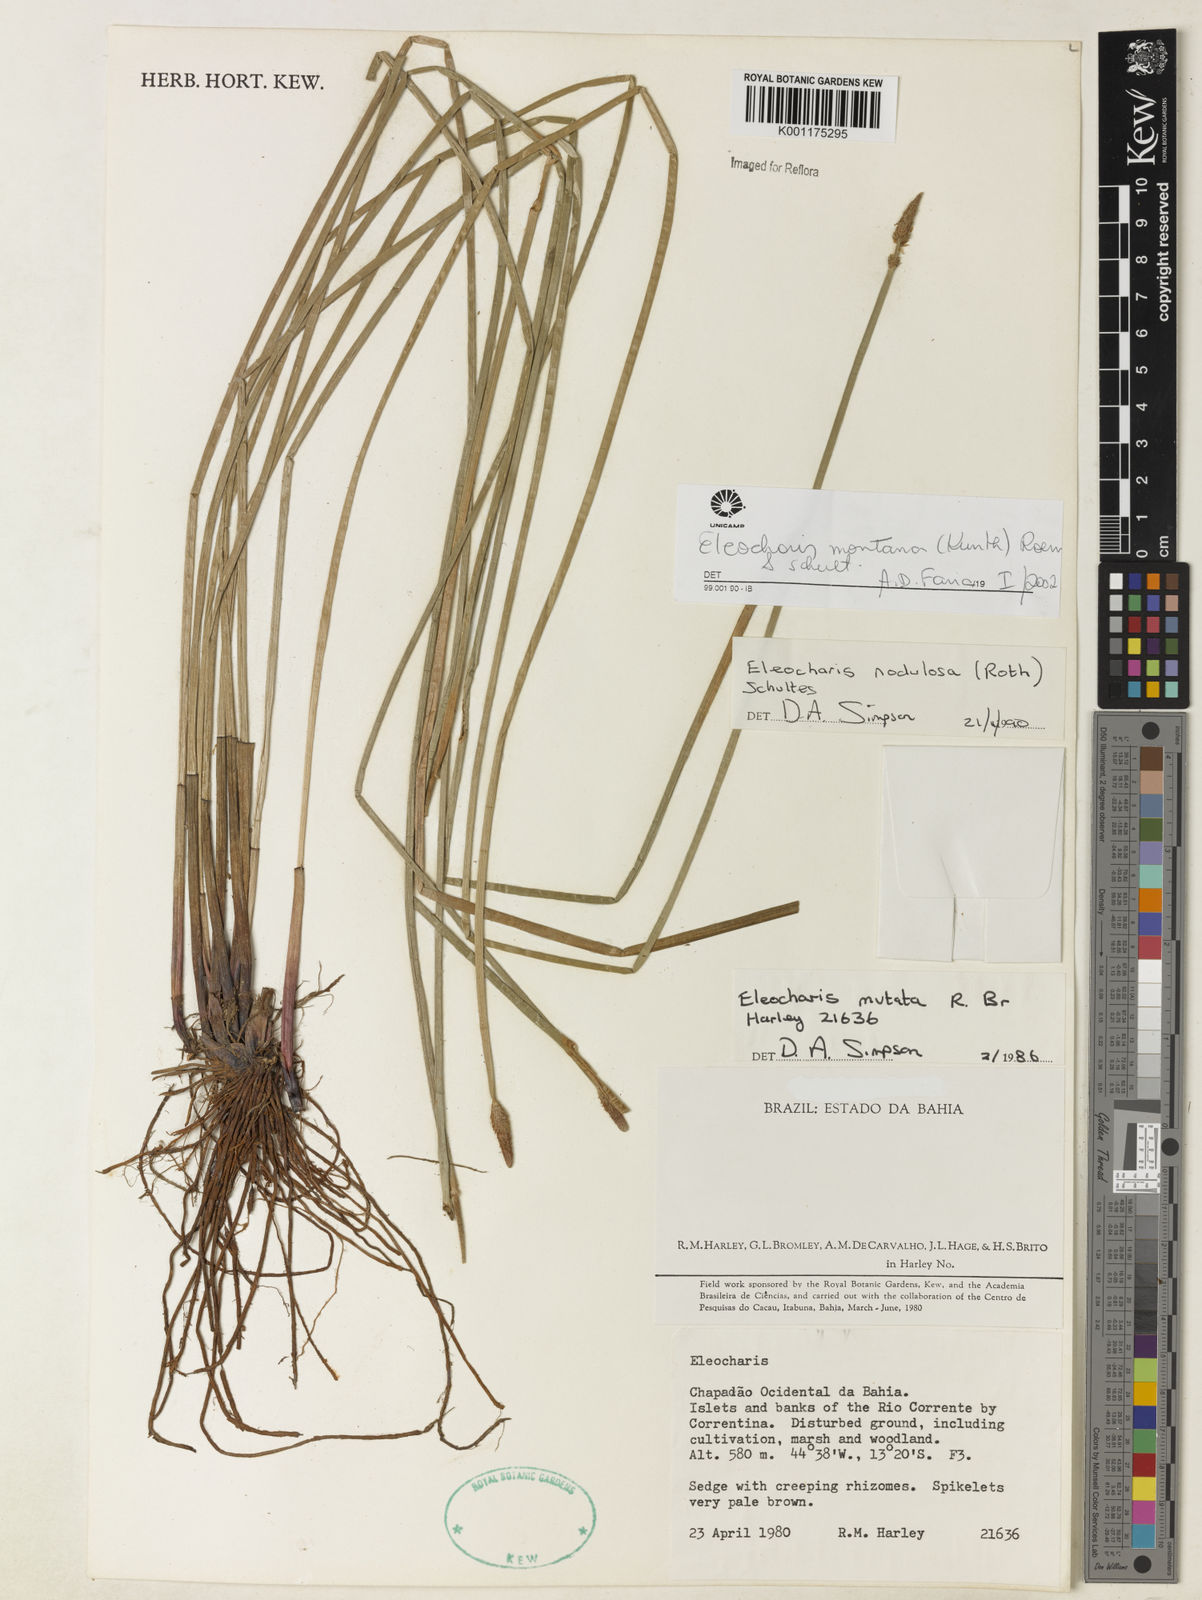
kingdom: Plantae
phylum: Tracheophyta
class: Liliopsida
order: Poales
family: Cyperaceae
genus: Eleocharis
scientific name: Eleocharis montana
